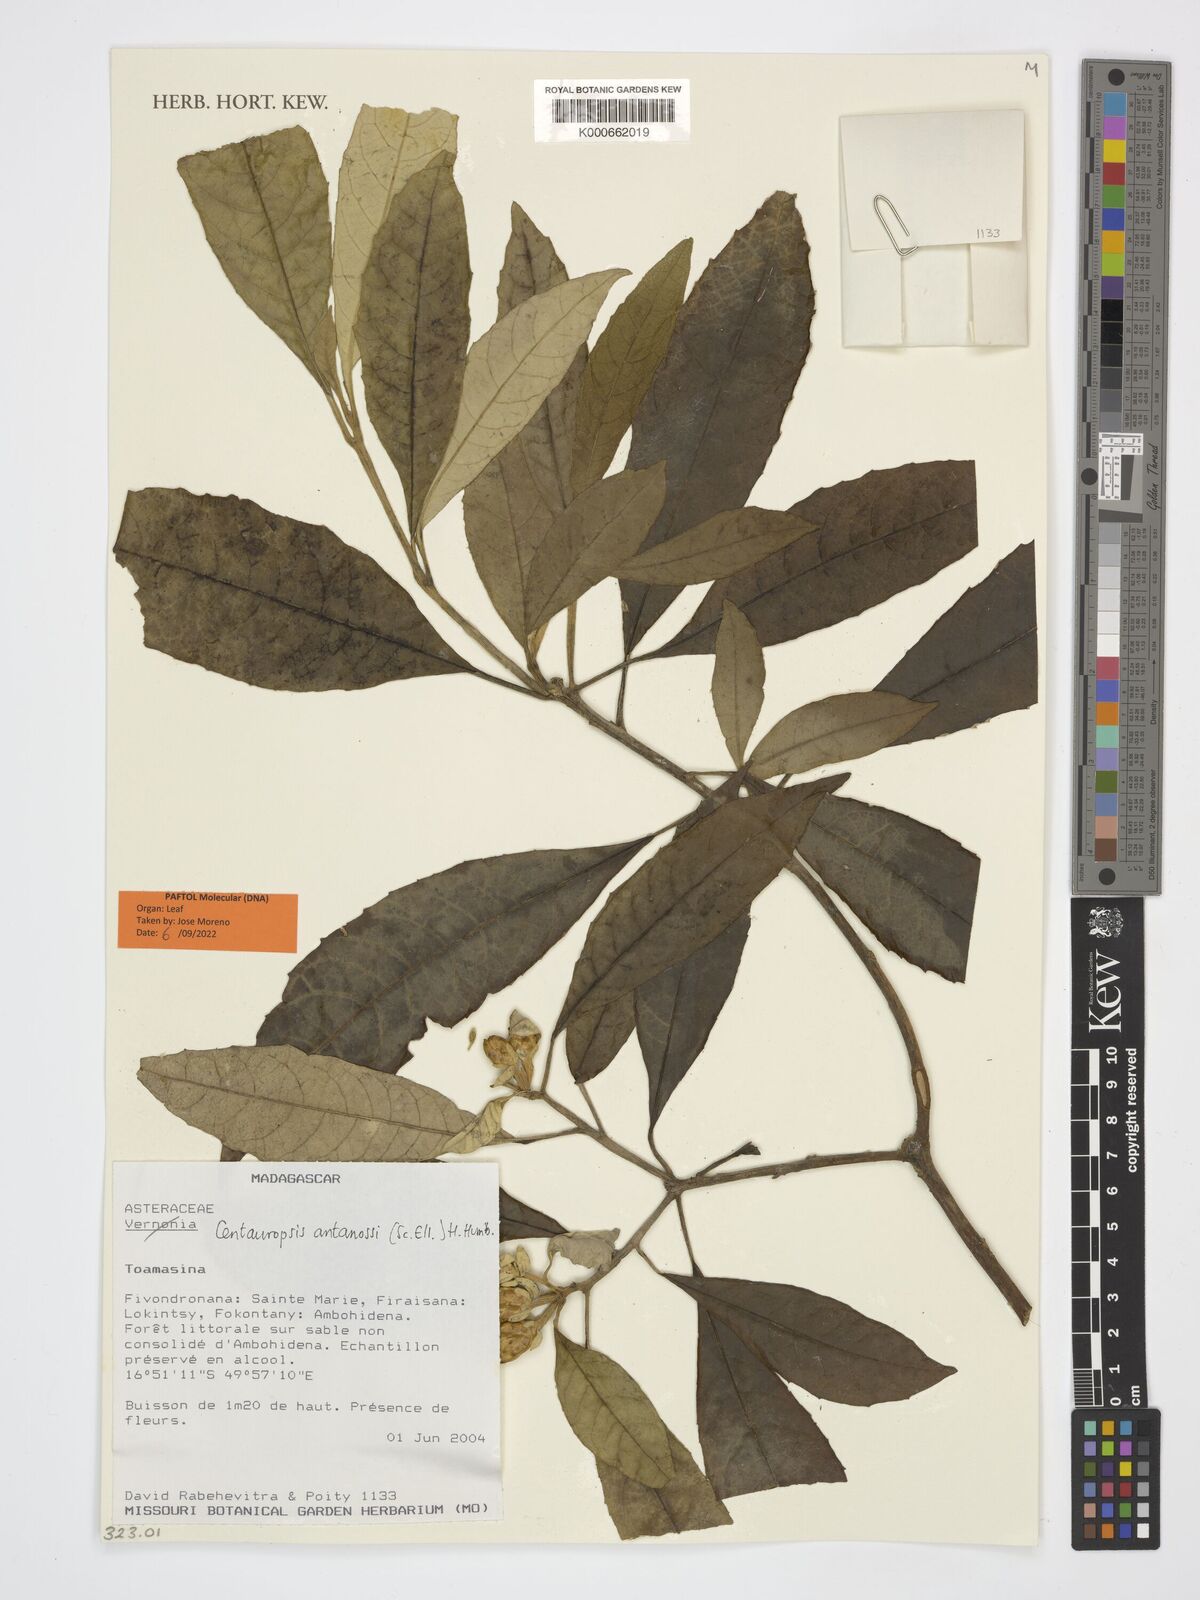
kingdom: Plantae
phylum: Tracheophyta
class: Magnoliopsida
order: Asterales
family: Asteraceae
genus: Centauropsis
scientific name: Centauropsis antanossi
